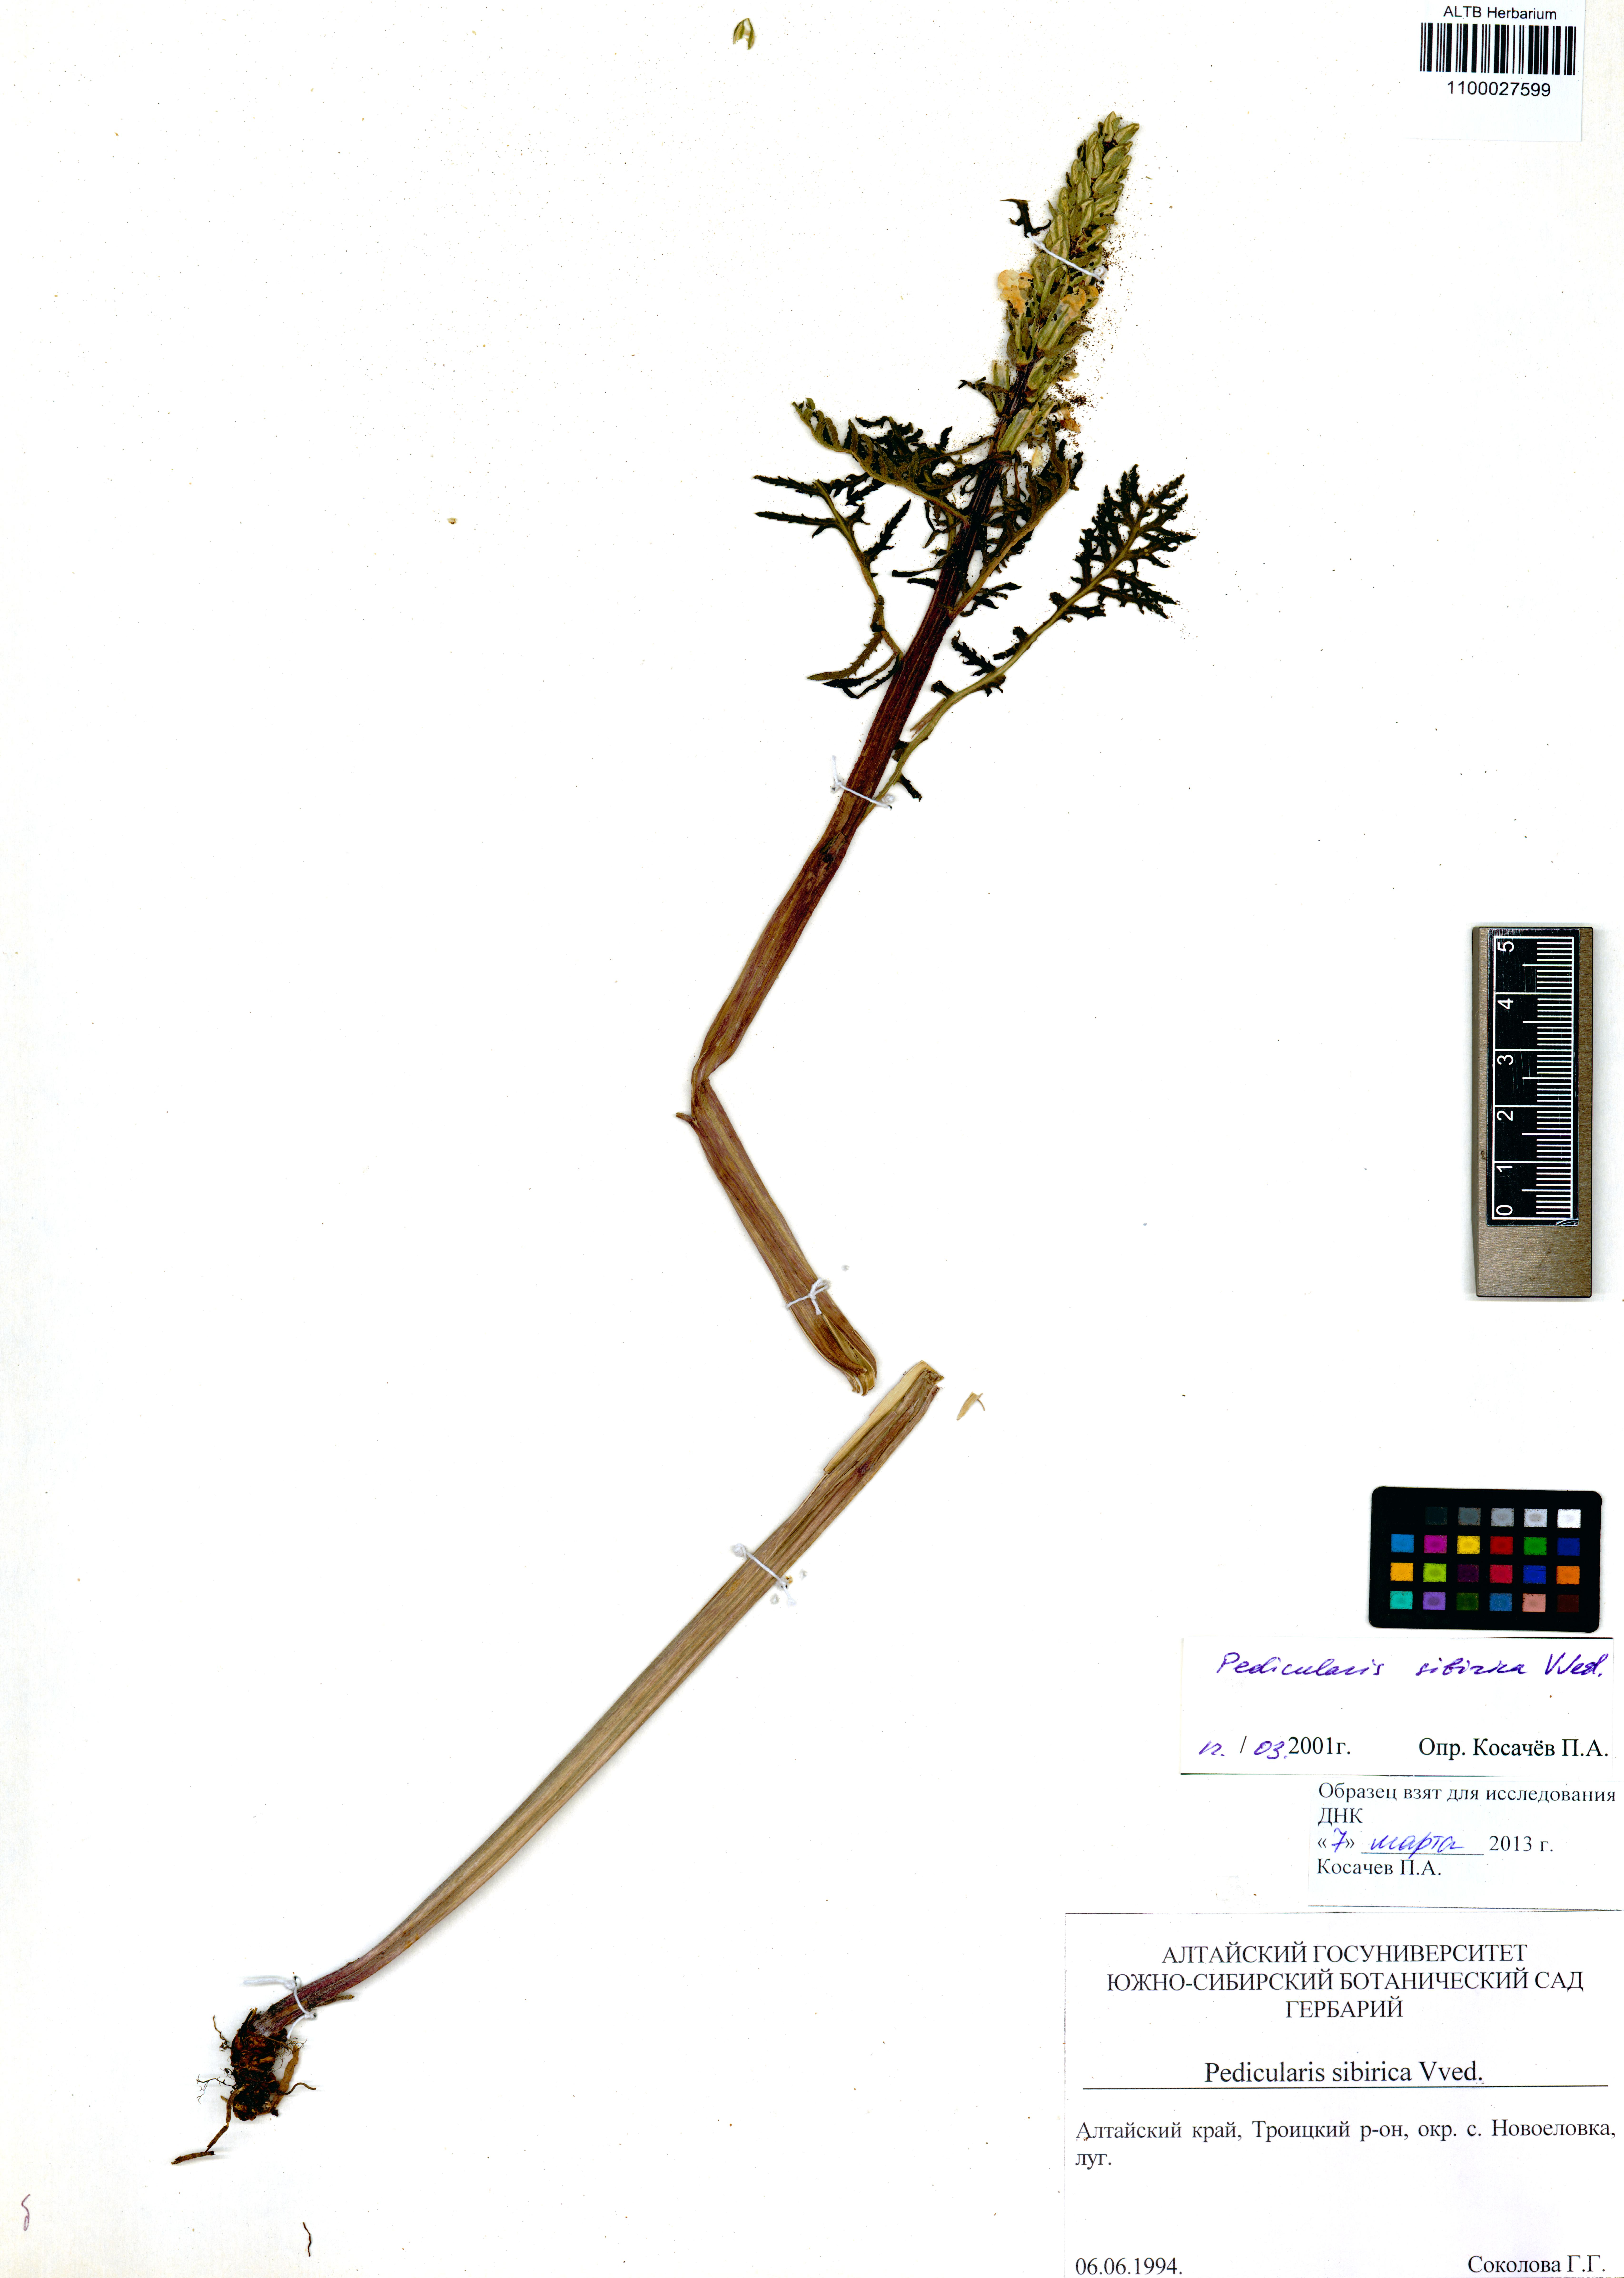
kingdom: Plantae
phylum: Tracheophyta
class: Magnoliopsida
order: Lamiales
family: Orobanchaceae
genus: Pedicularis
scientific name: Pedicularis sibirica
